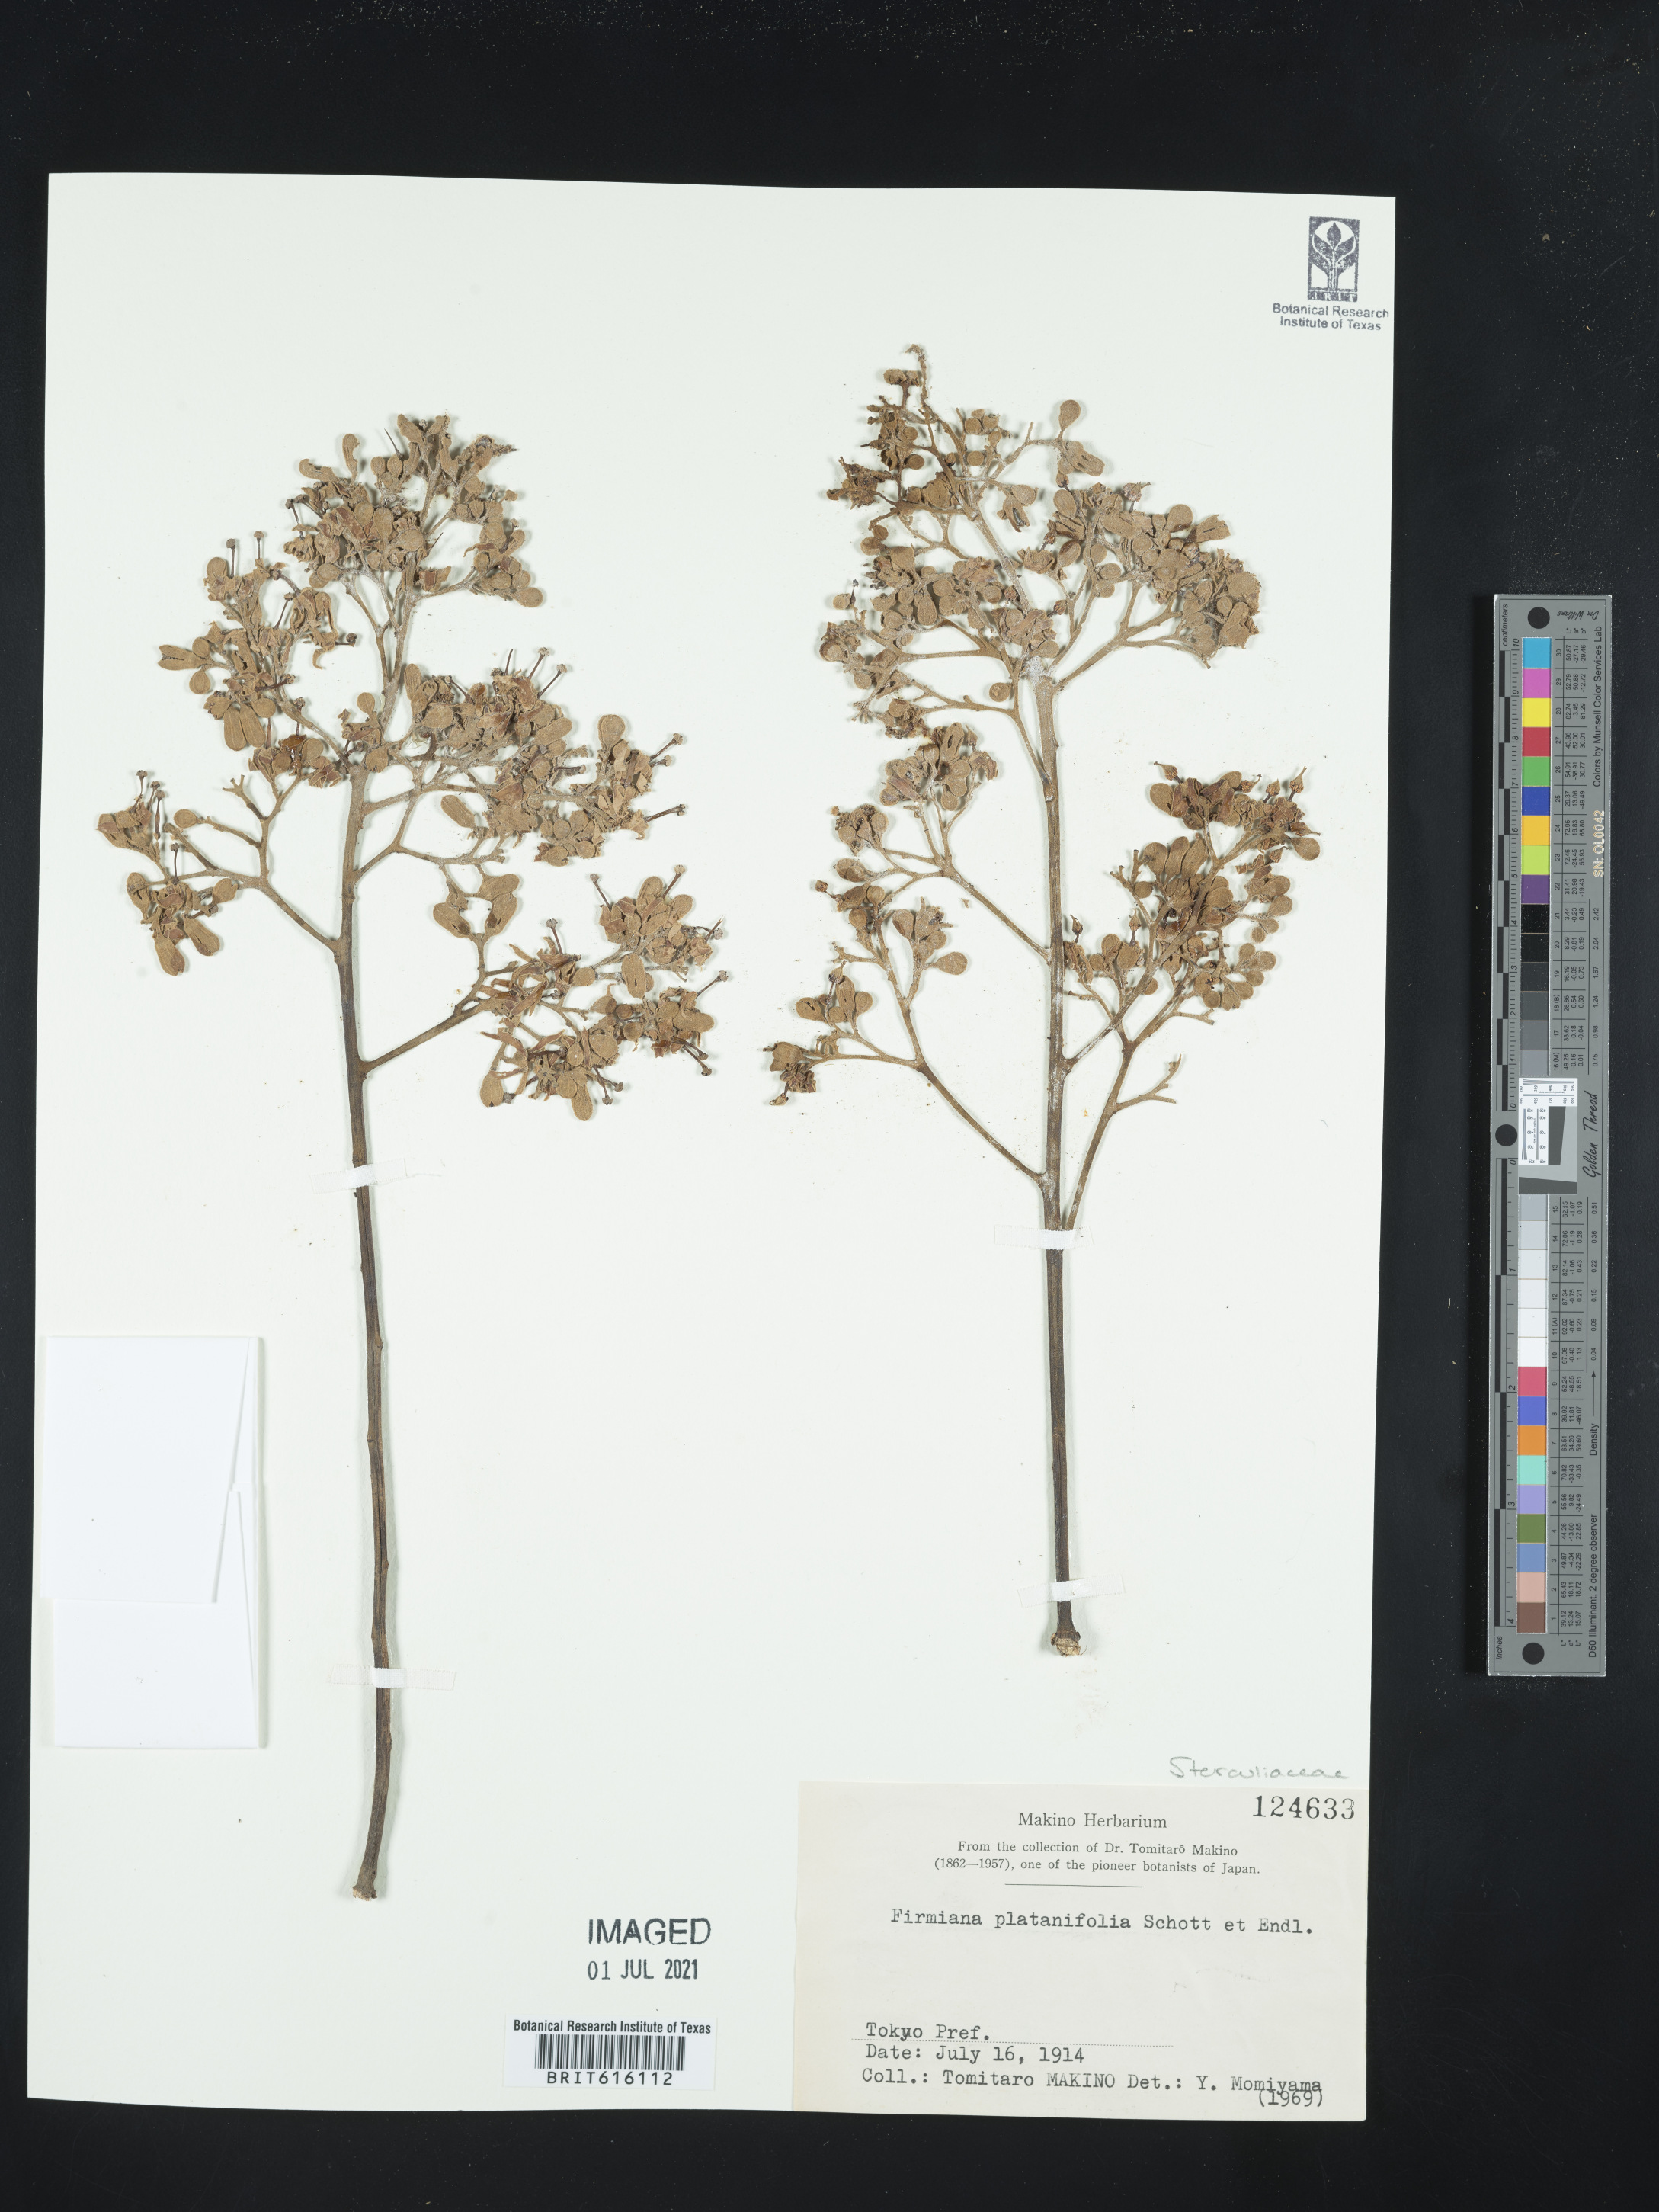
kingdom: Plantae
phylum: Tracheophyta
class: Magnoliopsida
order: Malvales
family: Malvaceae
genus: Firmiana
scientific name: Firmiana simplex
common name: Chinese parasoltree
